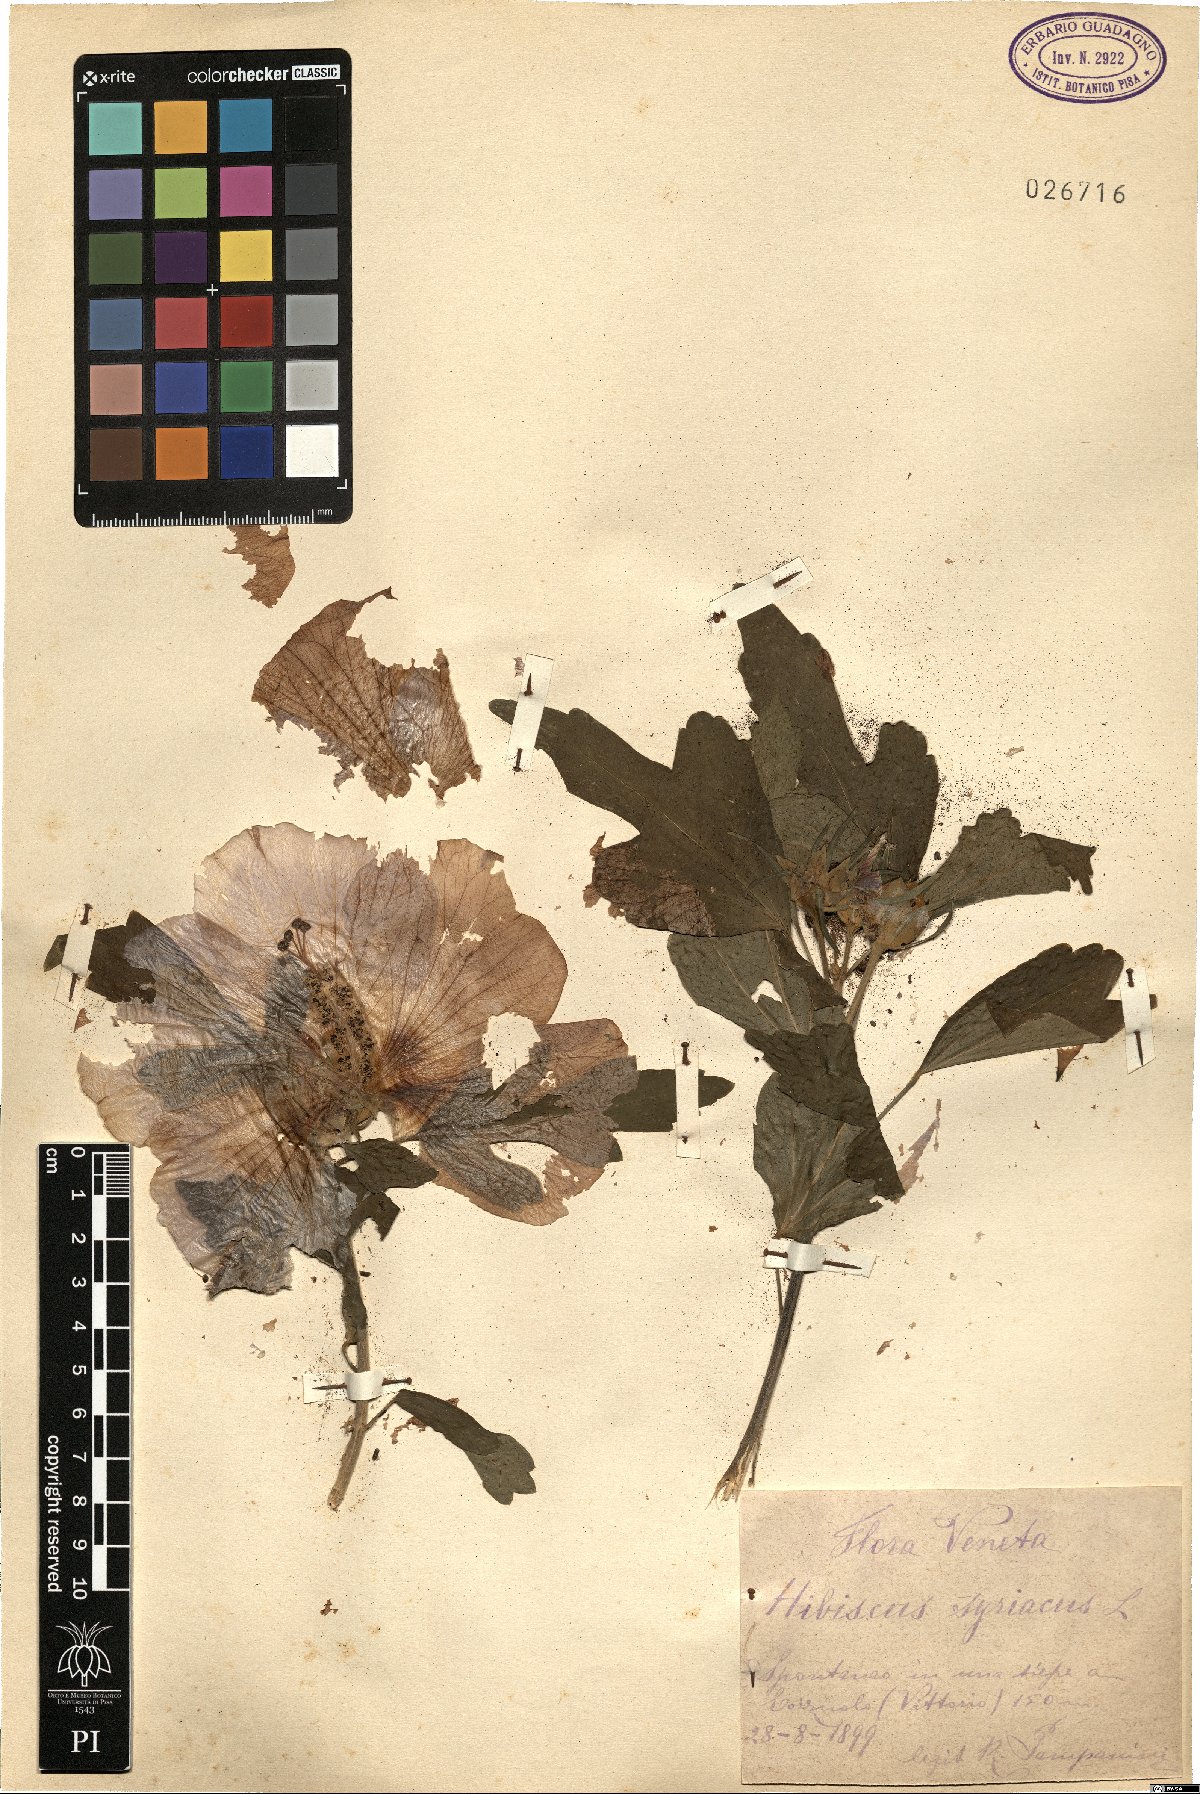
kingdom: Plantae
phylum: Tracheophyta
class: Magnoliopsida
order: Malvales
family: Malvaceae
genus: Hibiscus
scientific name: Hibiscus syriacus
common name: Syrian ketmia
